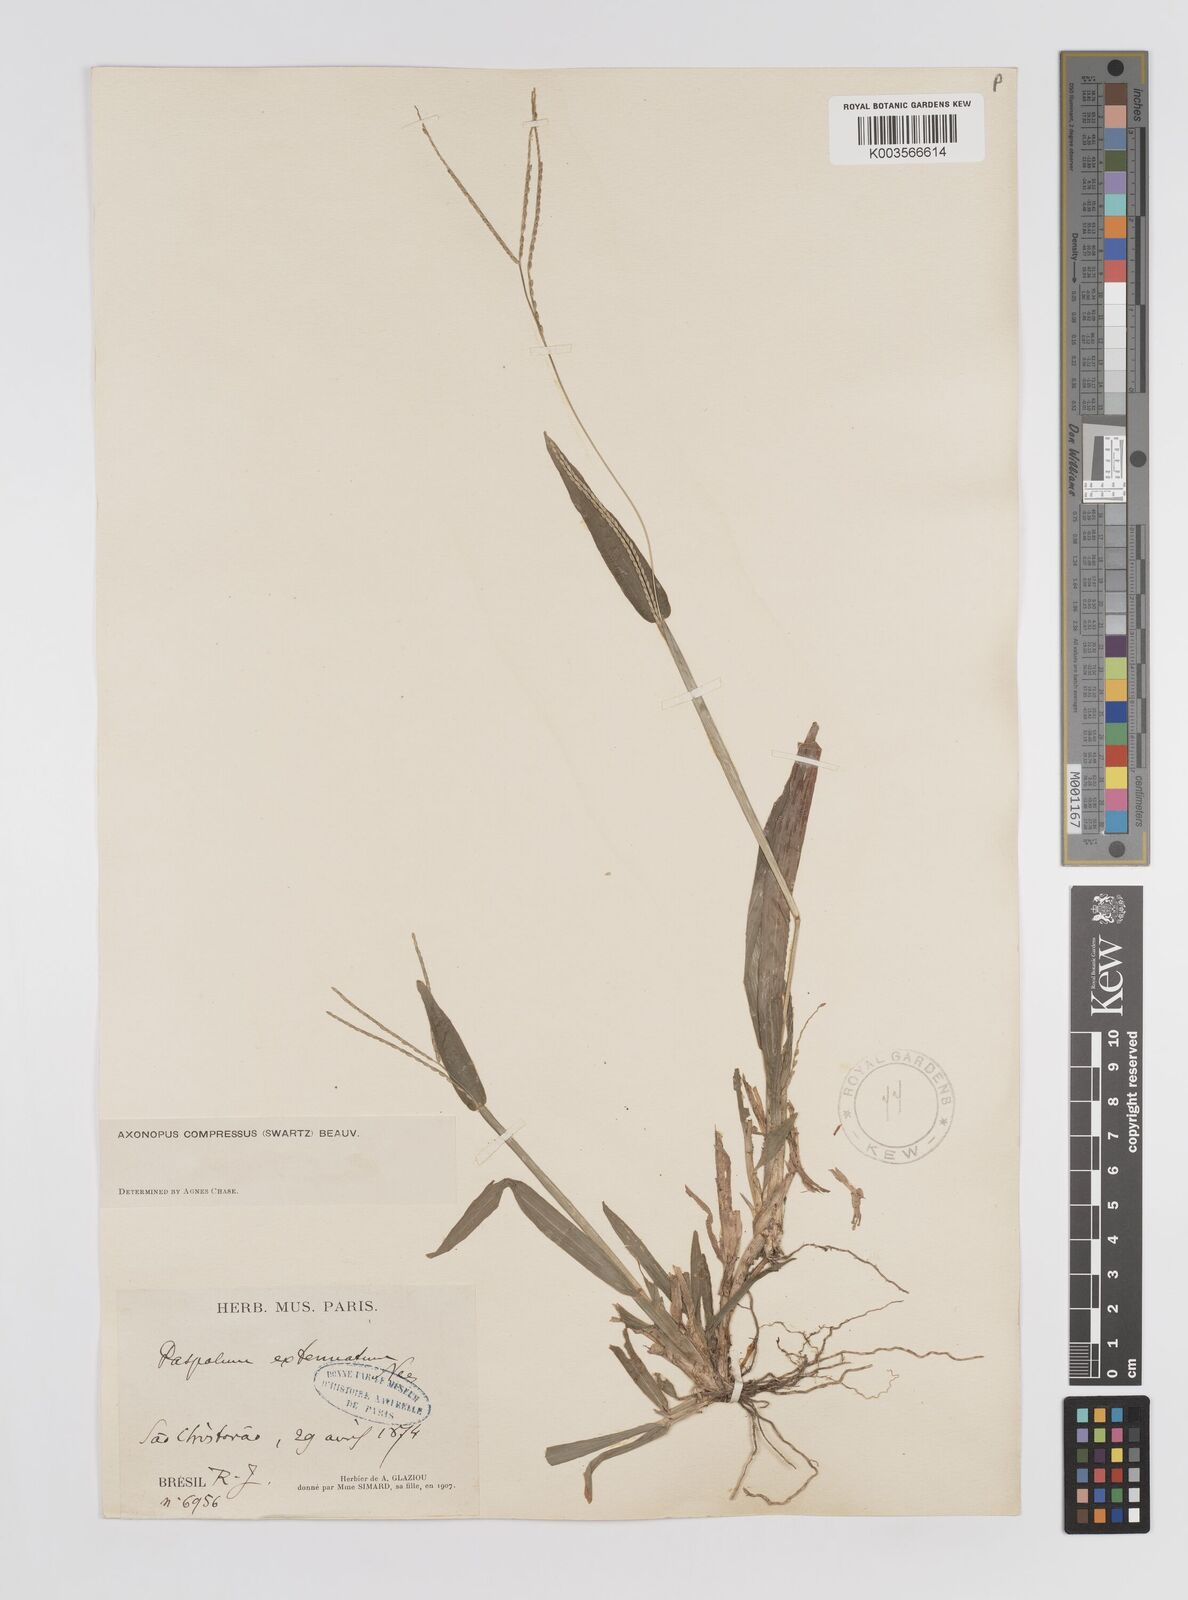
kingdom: Plantae
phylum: Tracheophyta
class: Liliopsida
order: Poales
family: Poaceae
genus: Axonopus
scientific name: Axonopus compressus
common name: American carpet grass
